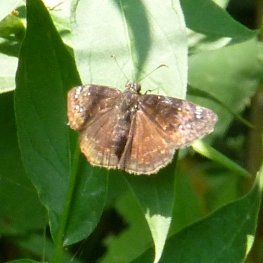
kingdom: Animalia
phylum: Arthropoda
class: Insecta
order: Lepidoptera
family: Hesperiidae
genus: Gesta
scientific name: Gesta
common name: Wild Indigo Duskywing
